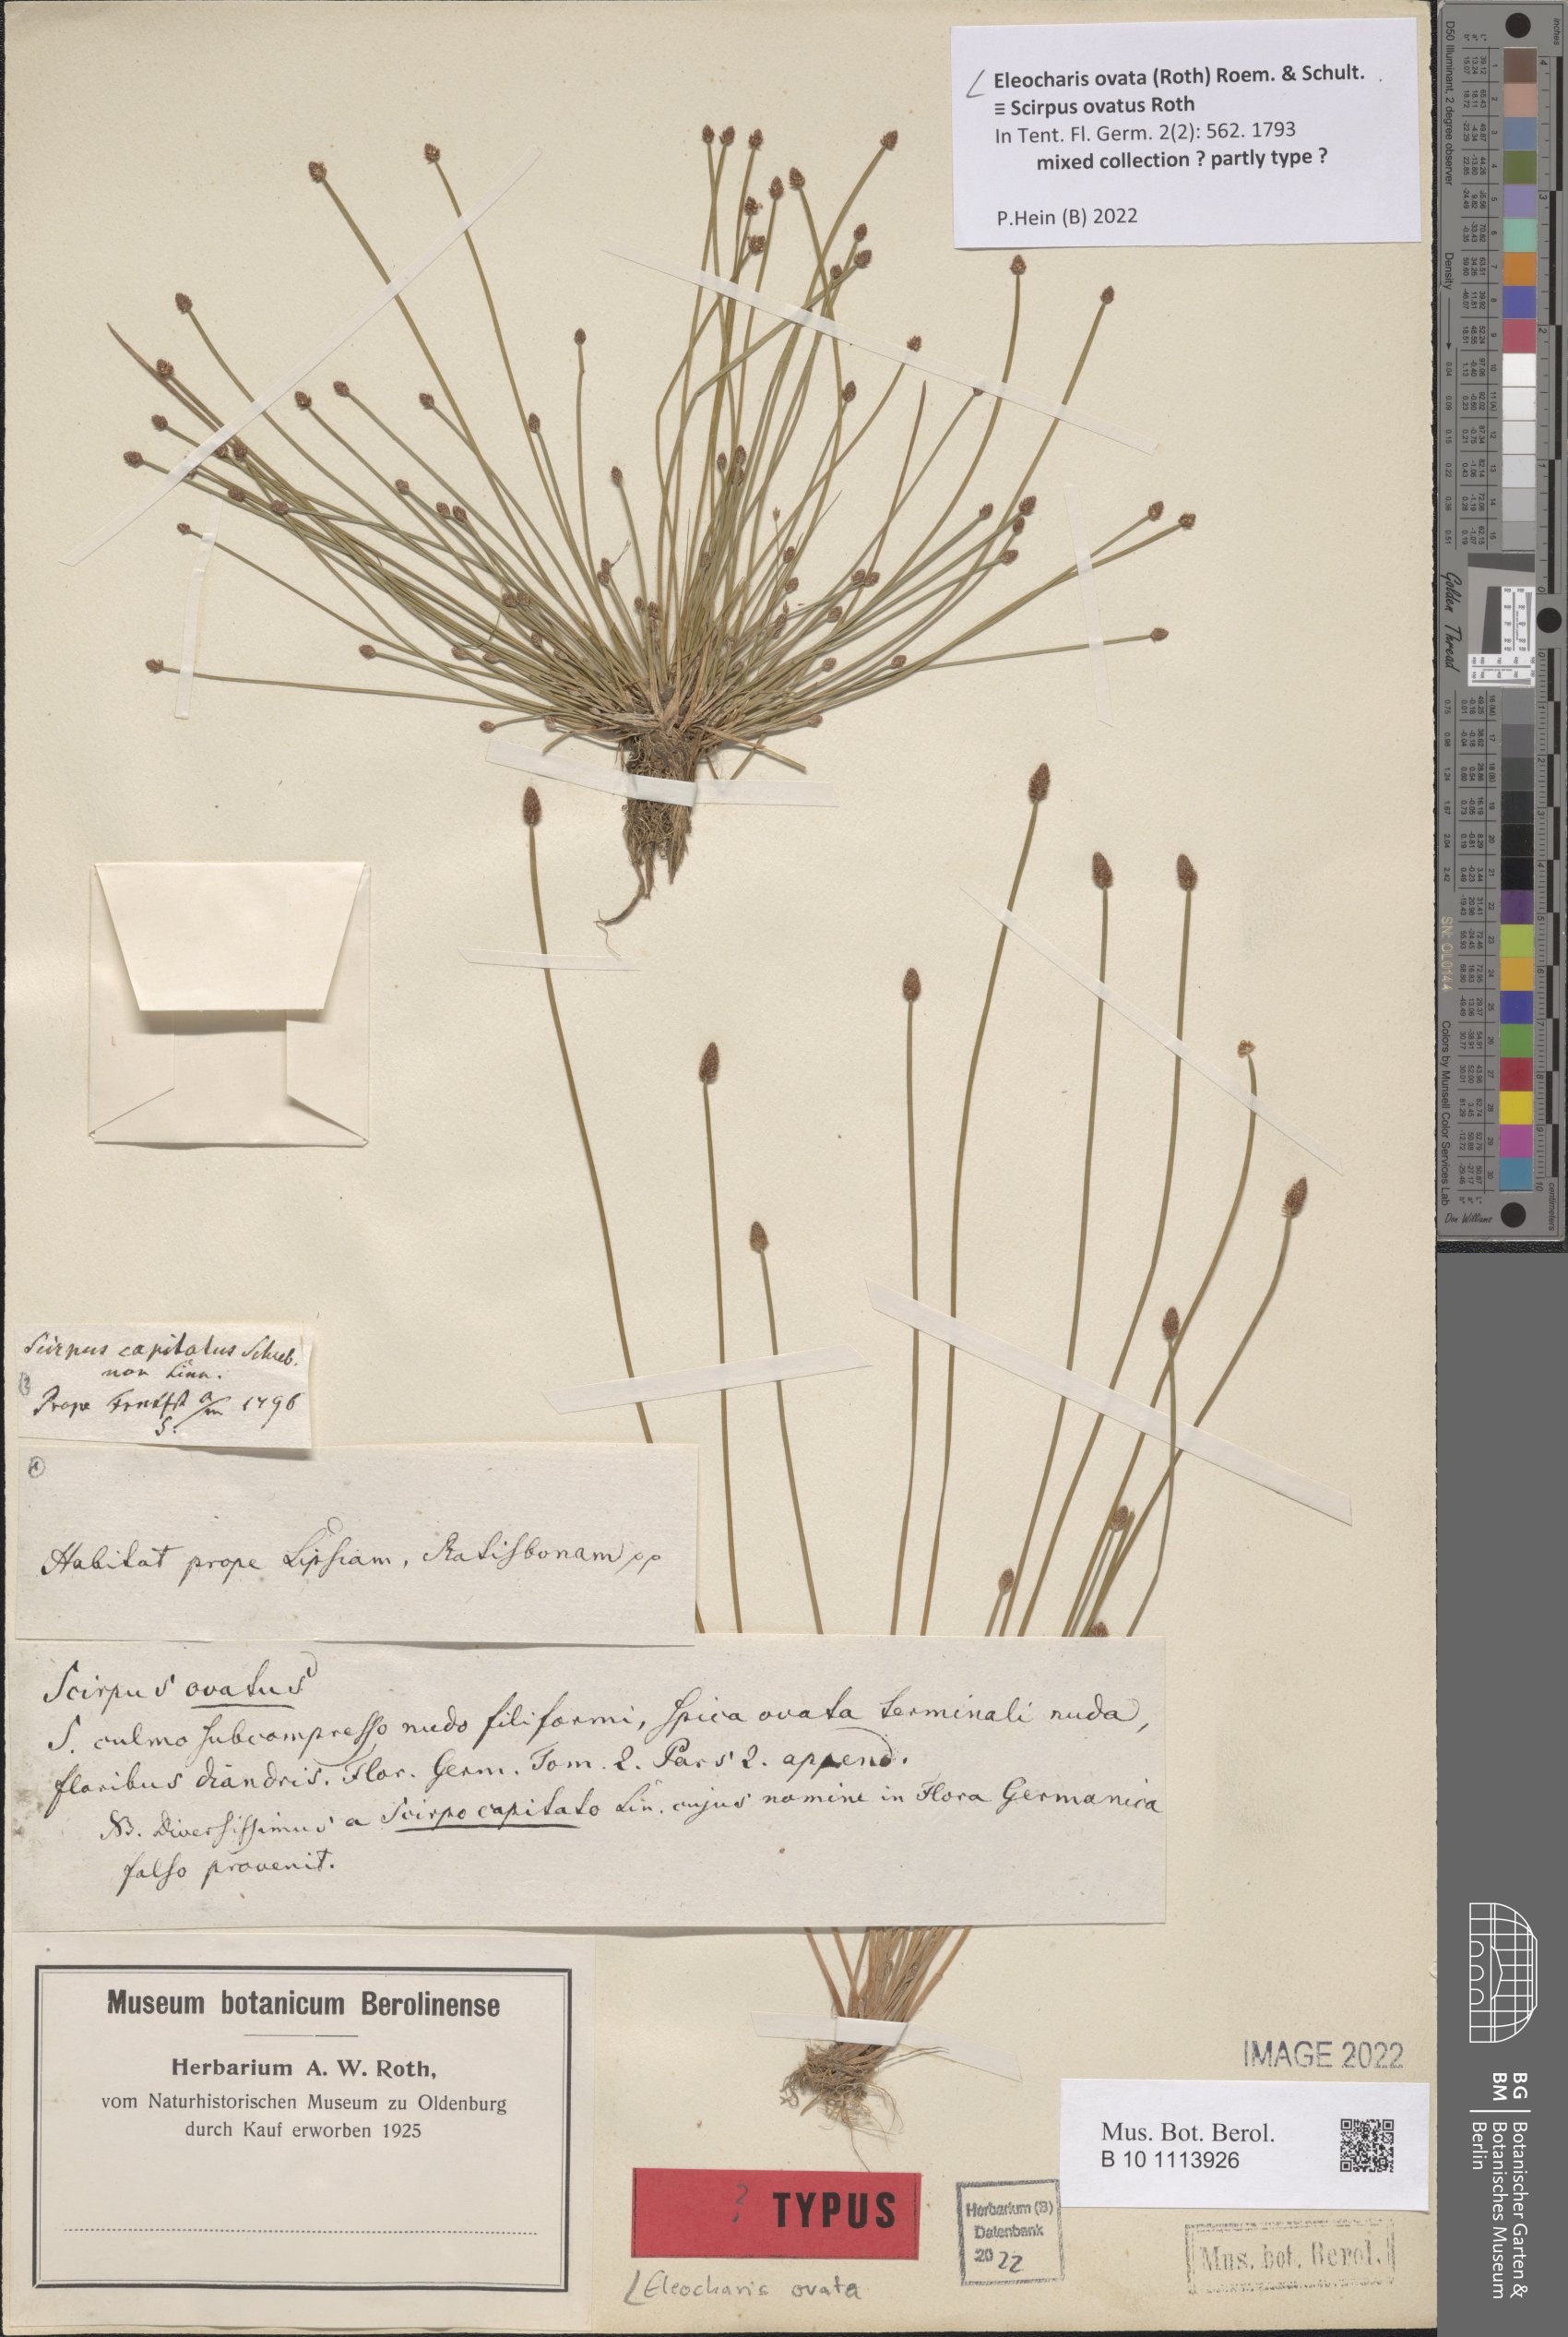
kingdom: Plantae
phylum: Tracheophyta
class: Liliopsida
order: Poales
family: Cyperaceae
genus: Eleocharis
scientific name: Eleocharis ovata
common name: Oval spike-rush
